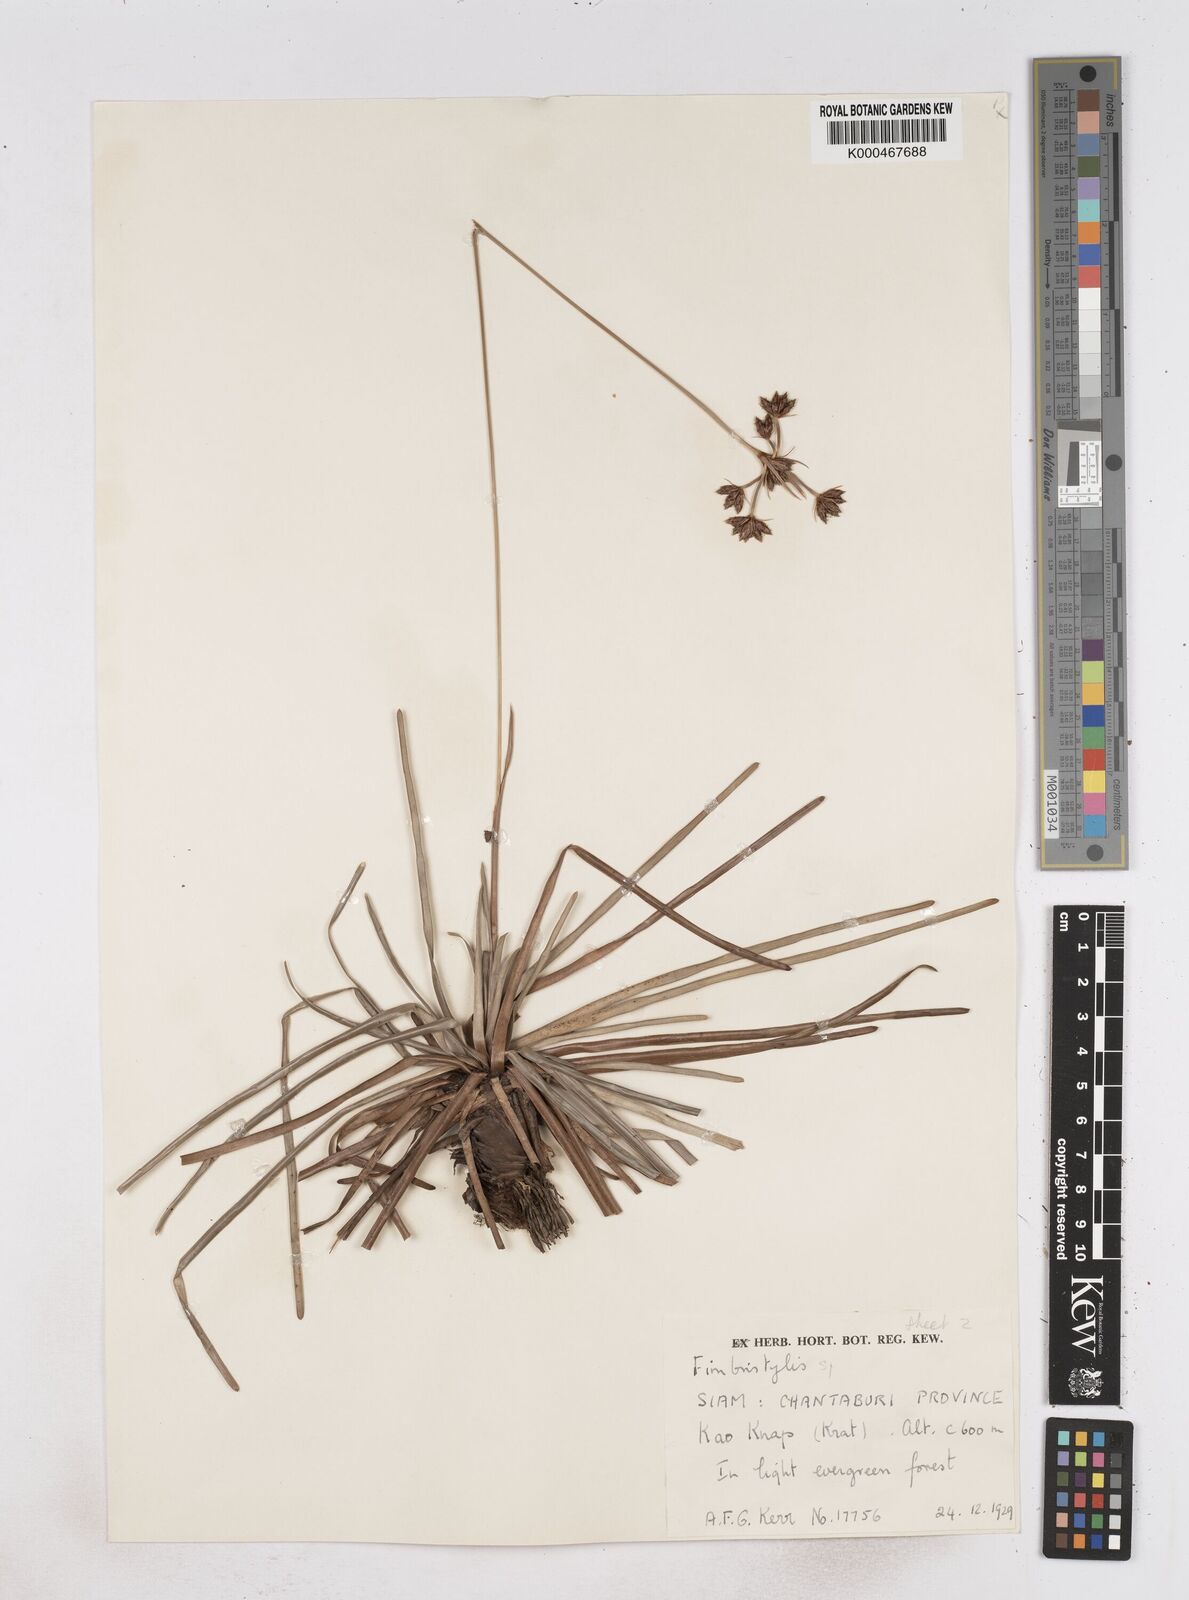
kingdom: Plantae
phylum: Tracheophyta
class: Liliopsida
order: Poales
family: Cyperaceae
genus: Fimbristylis
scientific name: Fimbristylis eragrostis
